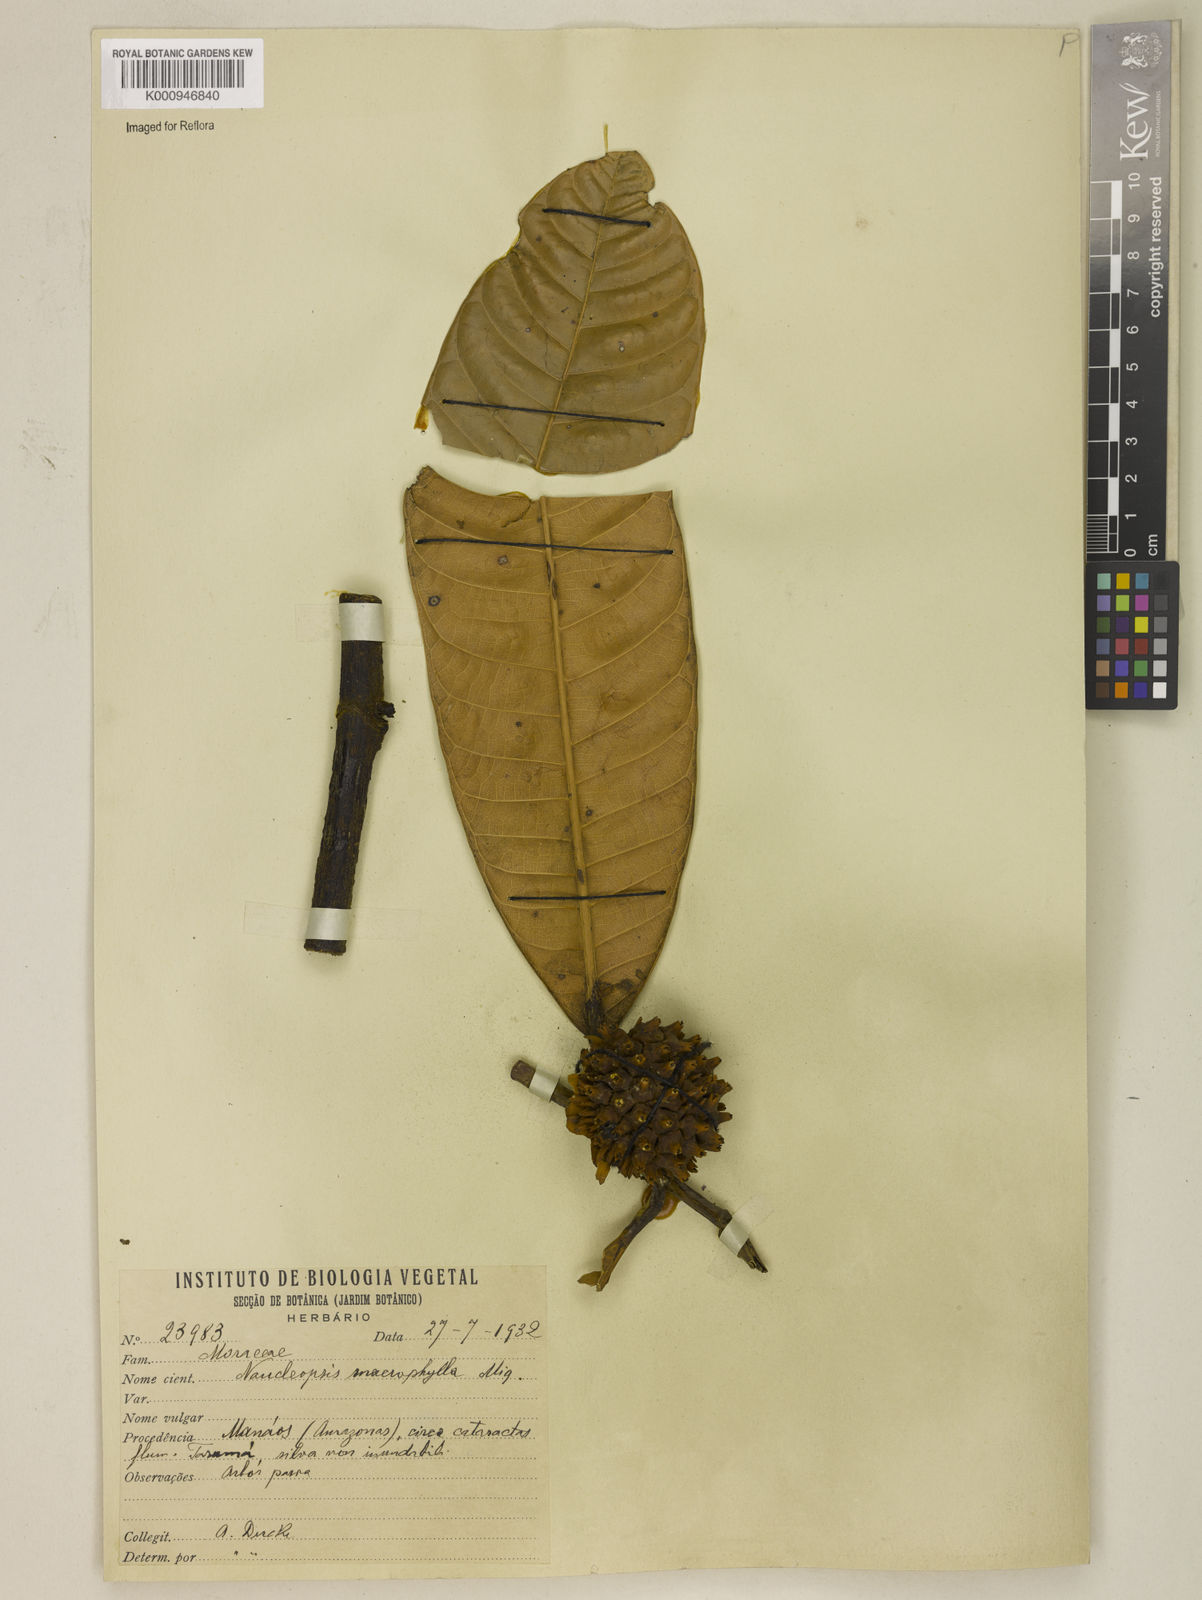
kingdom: Plantae
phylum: Tracheophyta
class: Magnoliopsida
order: Rosales
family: Moraceae
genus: Naucleopsis
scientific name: Naucleopsis macrophylla
